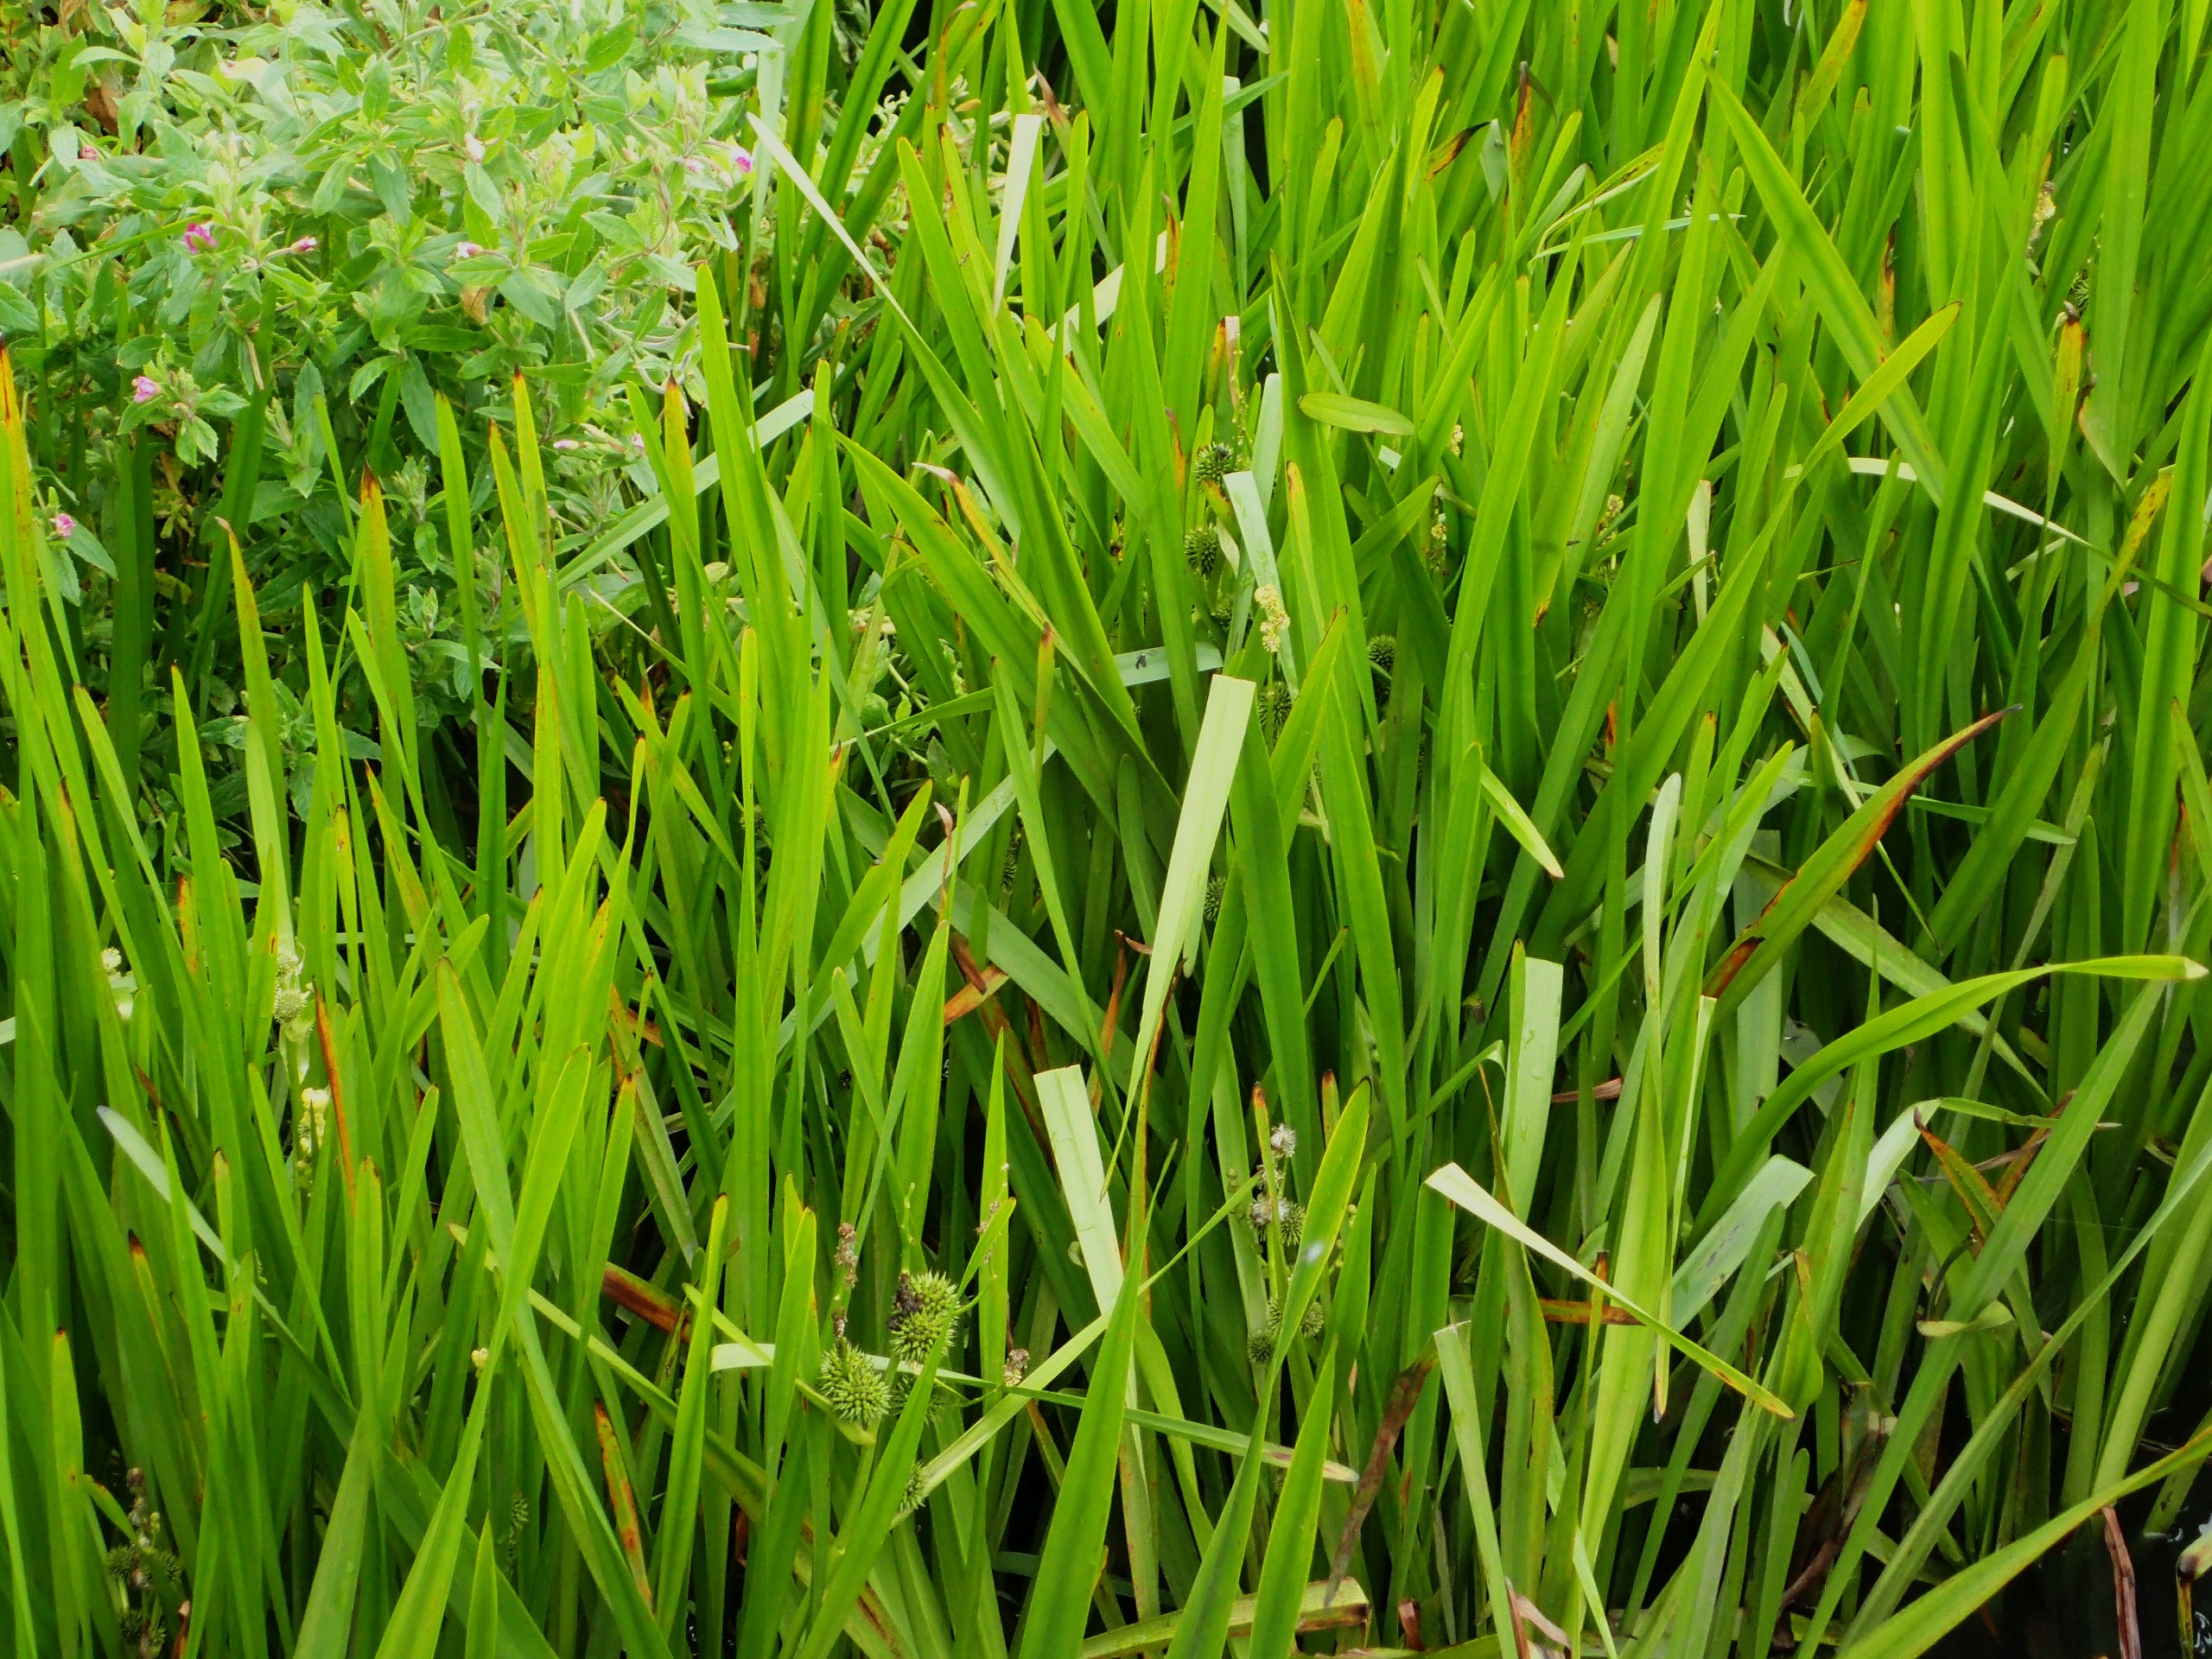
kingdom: Plantae
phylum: Tracheophyta
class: Liliopsida
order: Poales
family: Typhaceae
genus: Sparganium
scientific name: Sparganium erectum
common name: Grenet pindsvineknop
